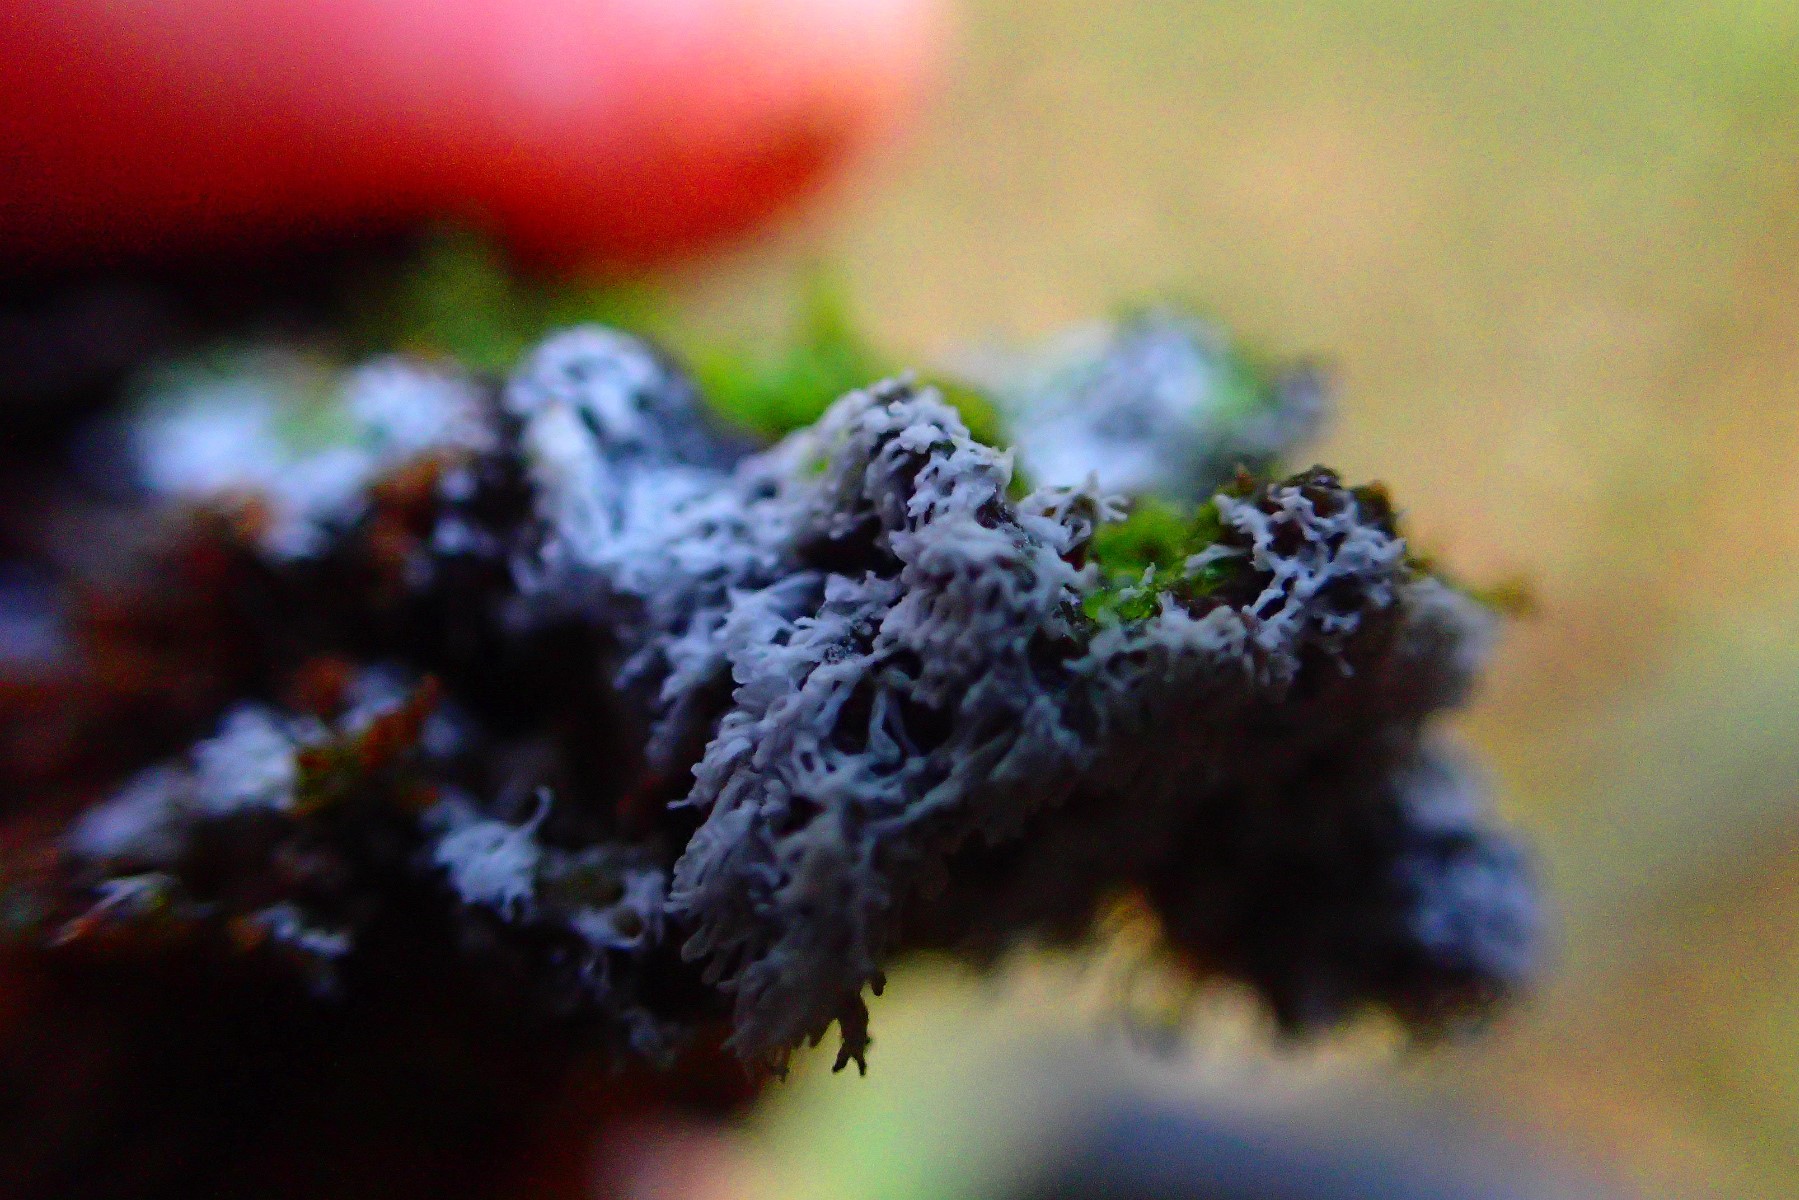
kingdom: Protozoa
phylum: Mycetozoa
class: Protosteliomycetes
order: Ceratiomyxales
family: Ceratiomyxaceae
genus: Ceratiomyxa
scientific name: Ceratiomyxa fruticulosa
